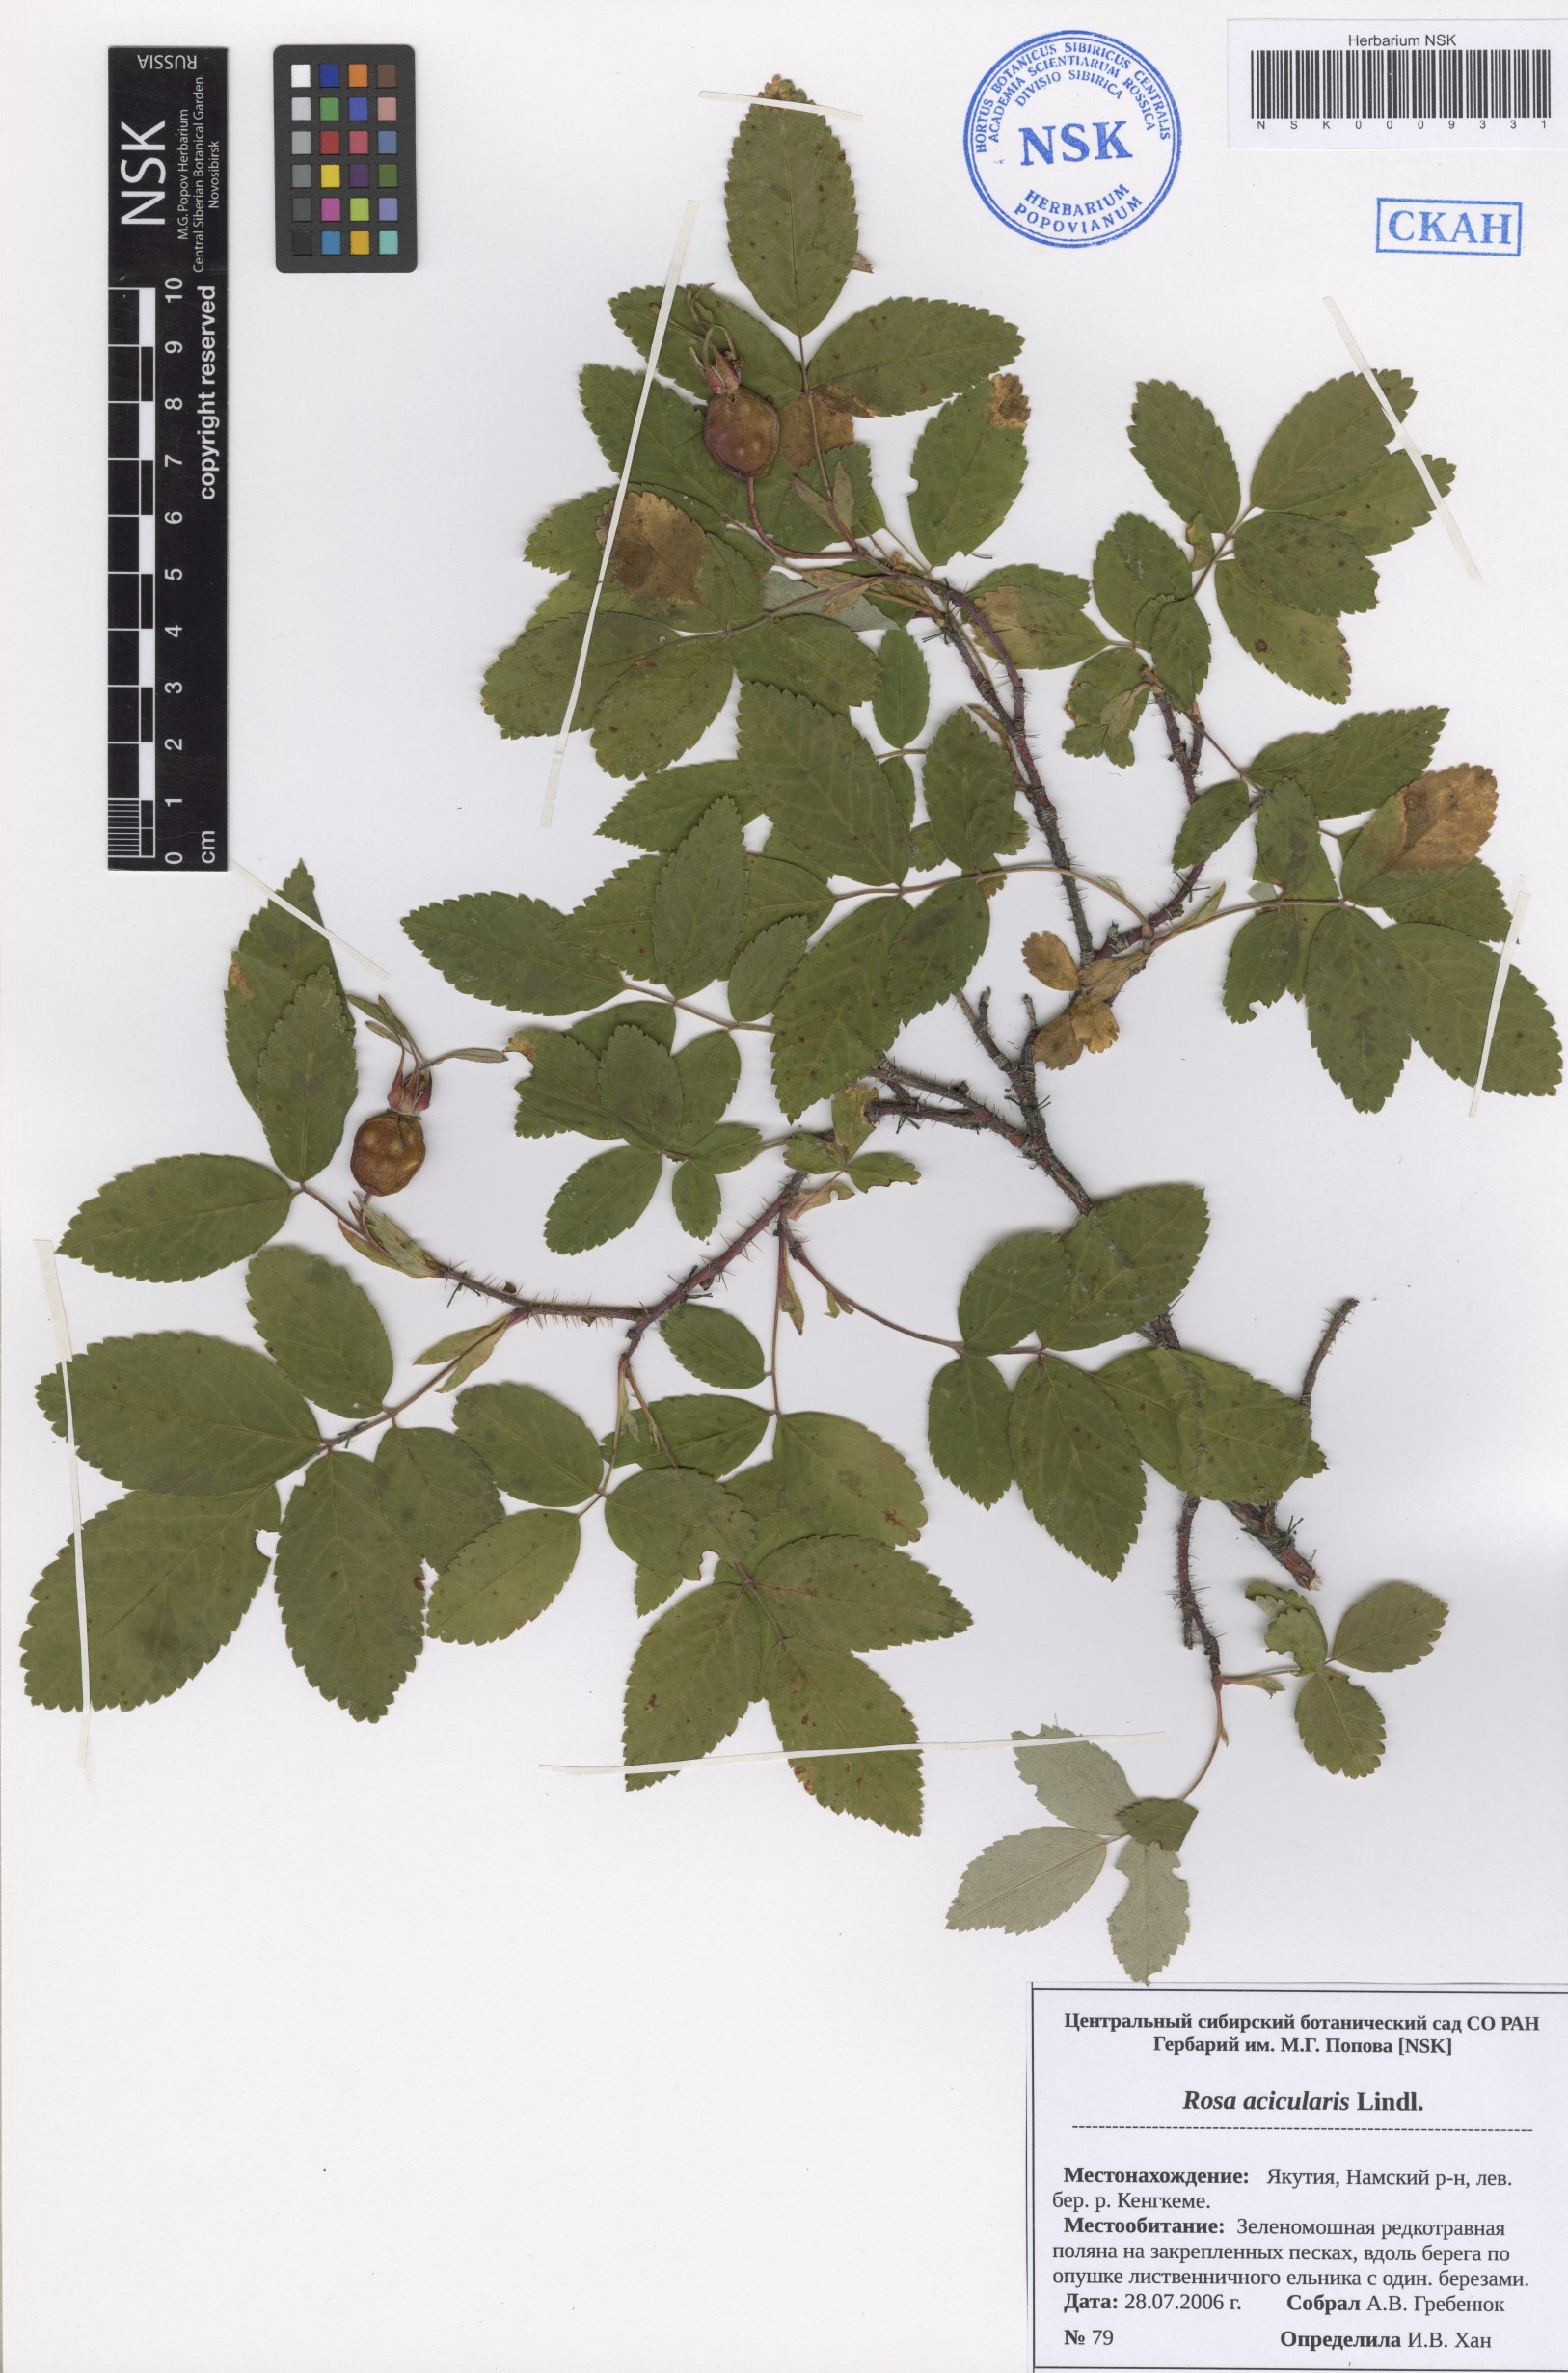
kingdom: Plantae
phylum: Tracheophyta
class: Magnoliopsida
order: Rosales
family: Rosaceae
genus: Rosa
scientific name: Rosa acicularis
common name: Prickly rose
